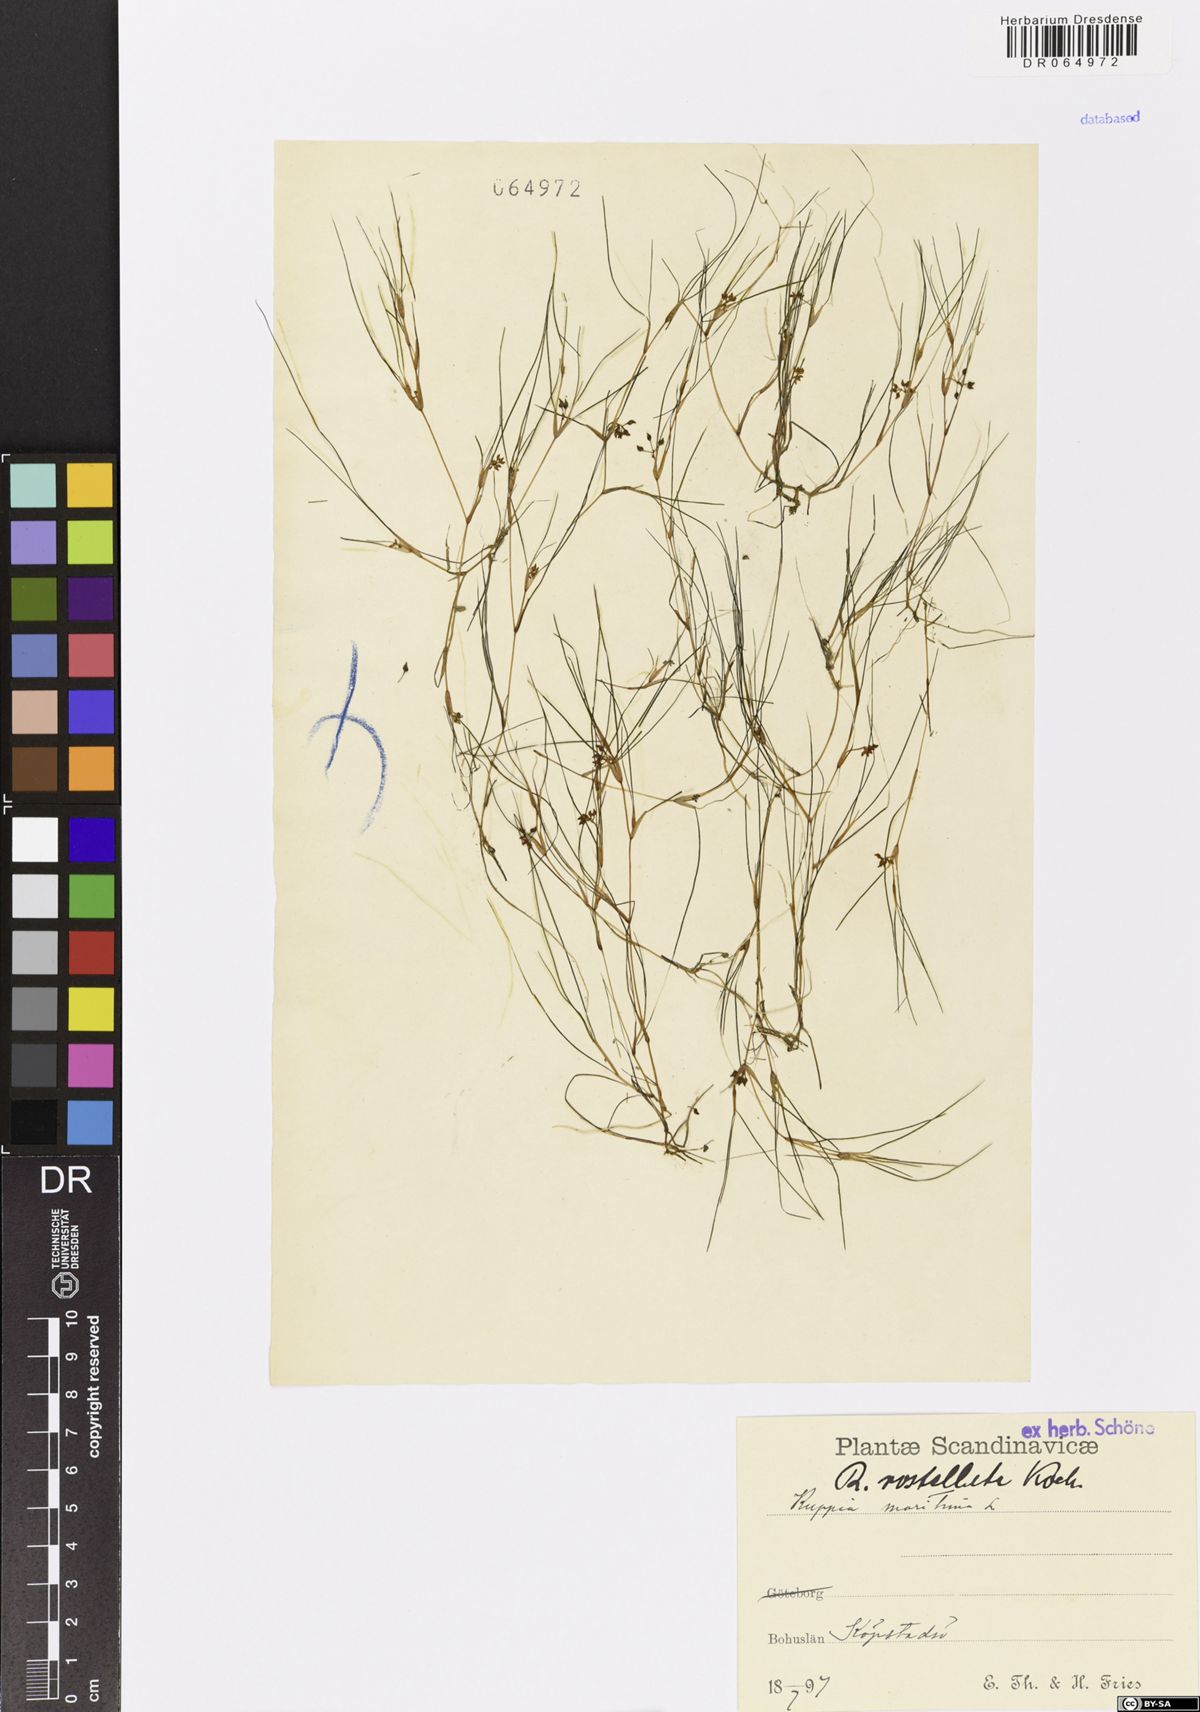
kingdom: Plantae
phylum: Tracheophyta
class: Liliopsida
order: Alismatales
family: Ruppiaceae
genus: Ruppia
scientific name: Ruppia maritima
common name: Beaked tasselweed
